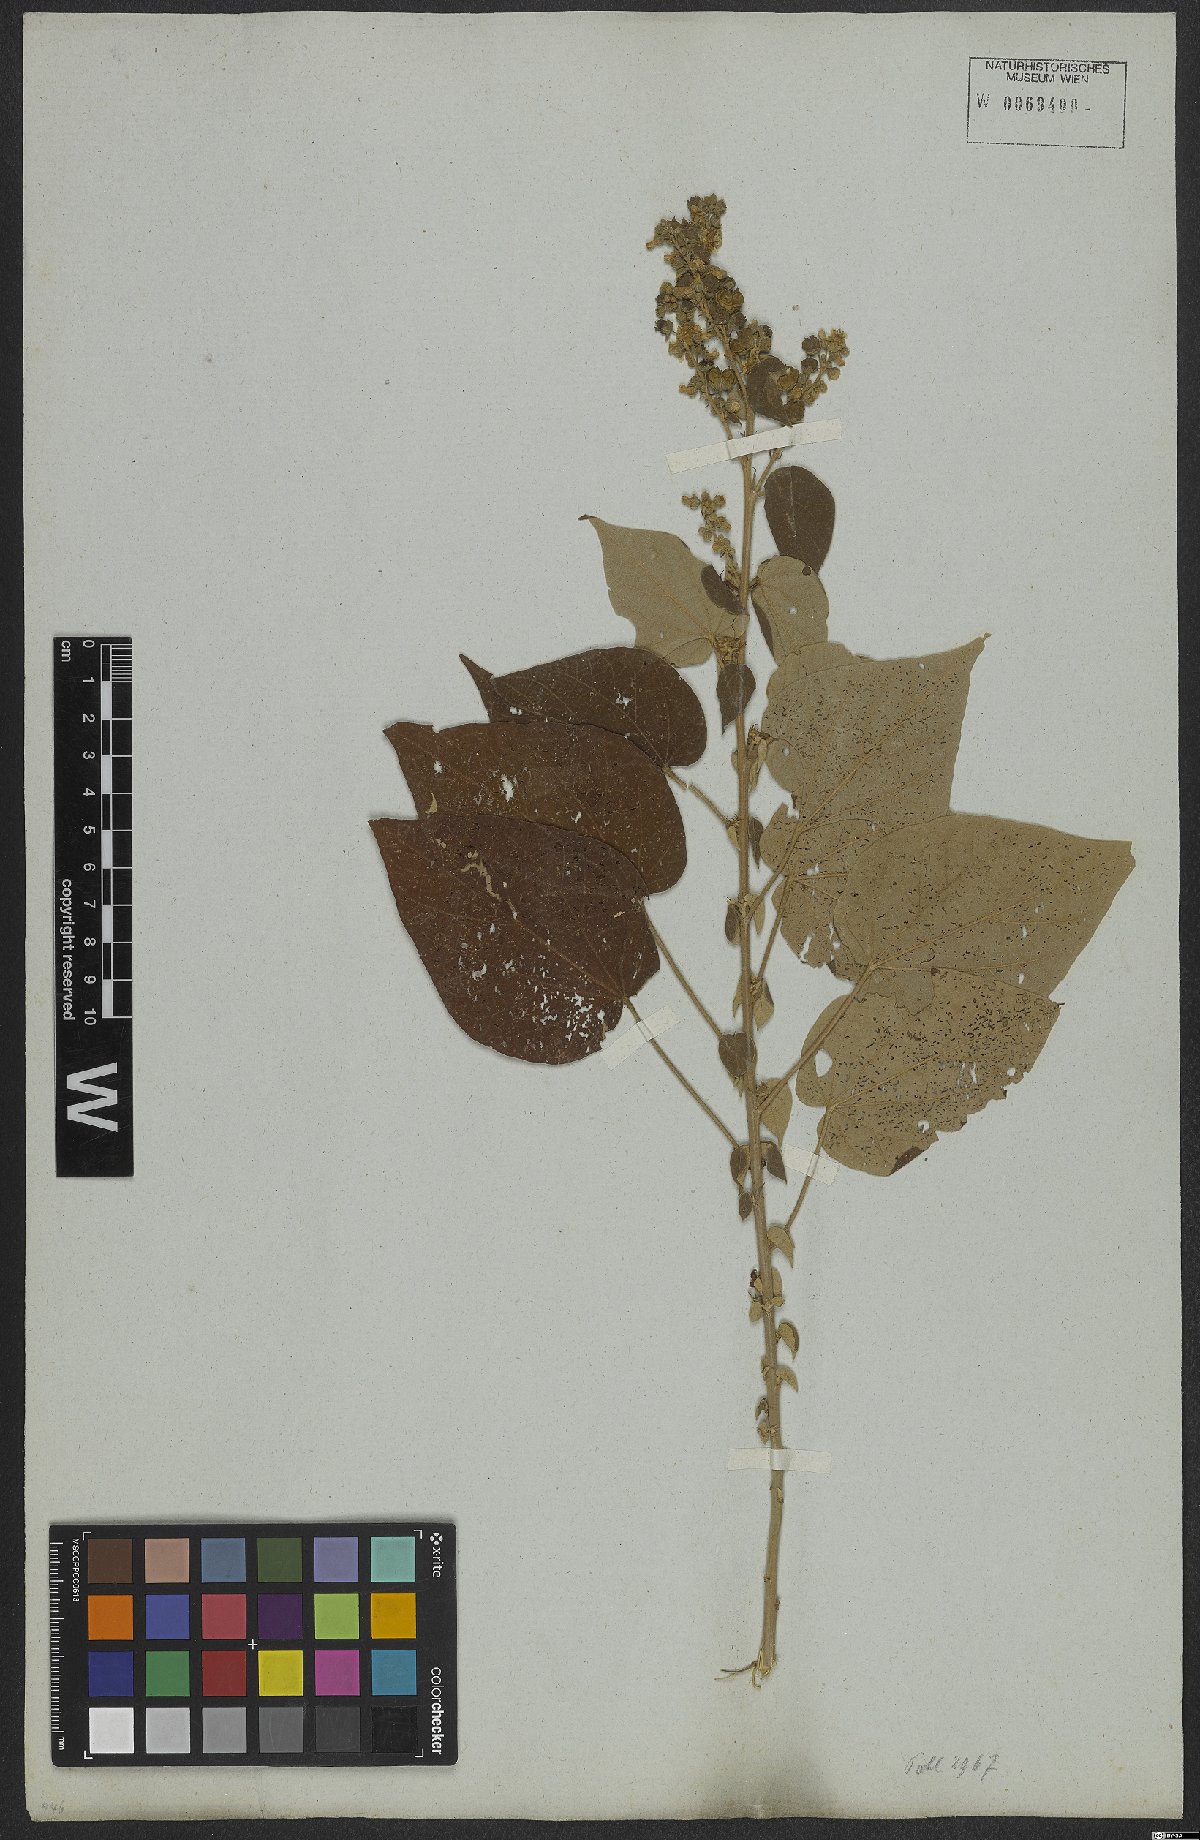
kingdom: Plantae
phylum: Tracheophyta
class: Magnoliopsida
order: Malvales
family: Malvaceae
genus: Allobriquetia
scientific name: Allobriquetia spicata
